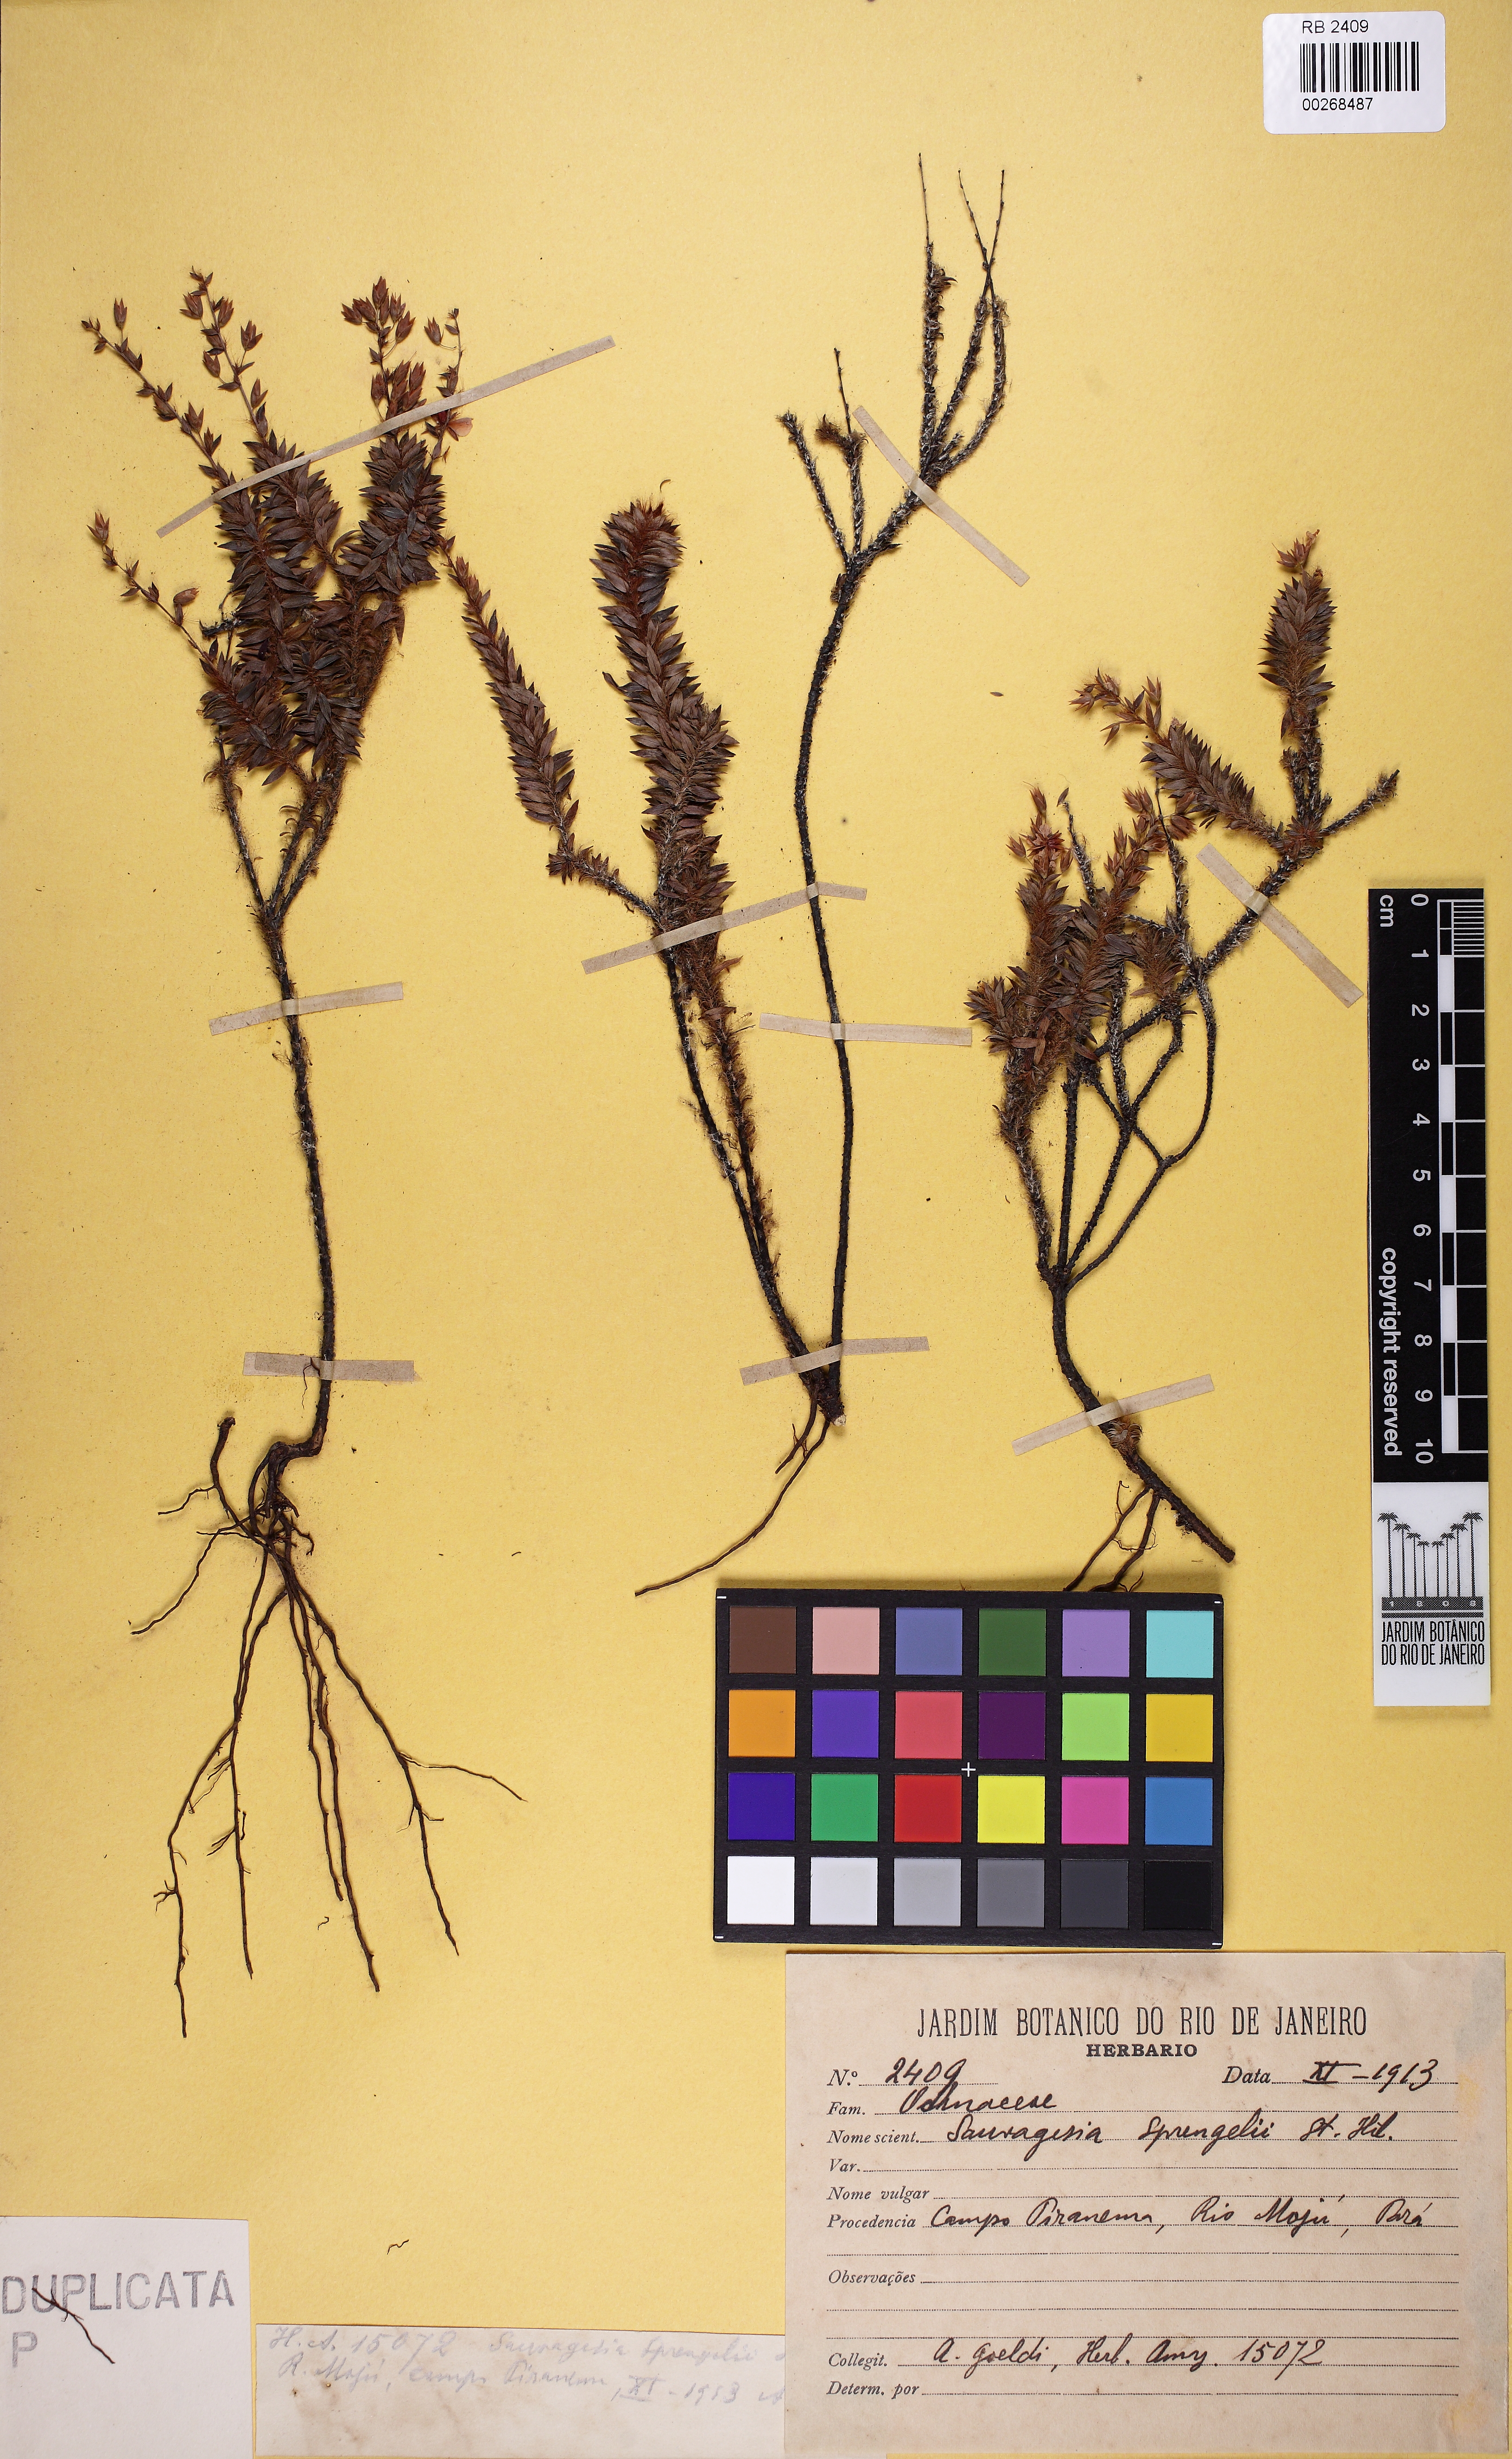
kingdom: Plantae
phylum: Tracheophyta
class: Magnoliopsida
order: Malpighiales
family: Ochnaceae
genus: Sauvagesia
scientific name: Sauvagesia sprengelii
